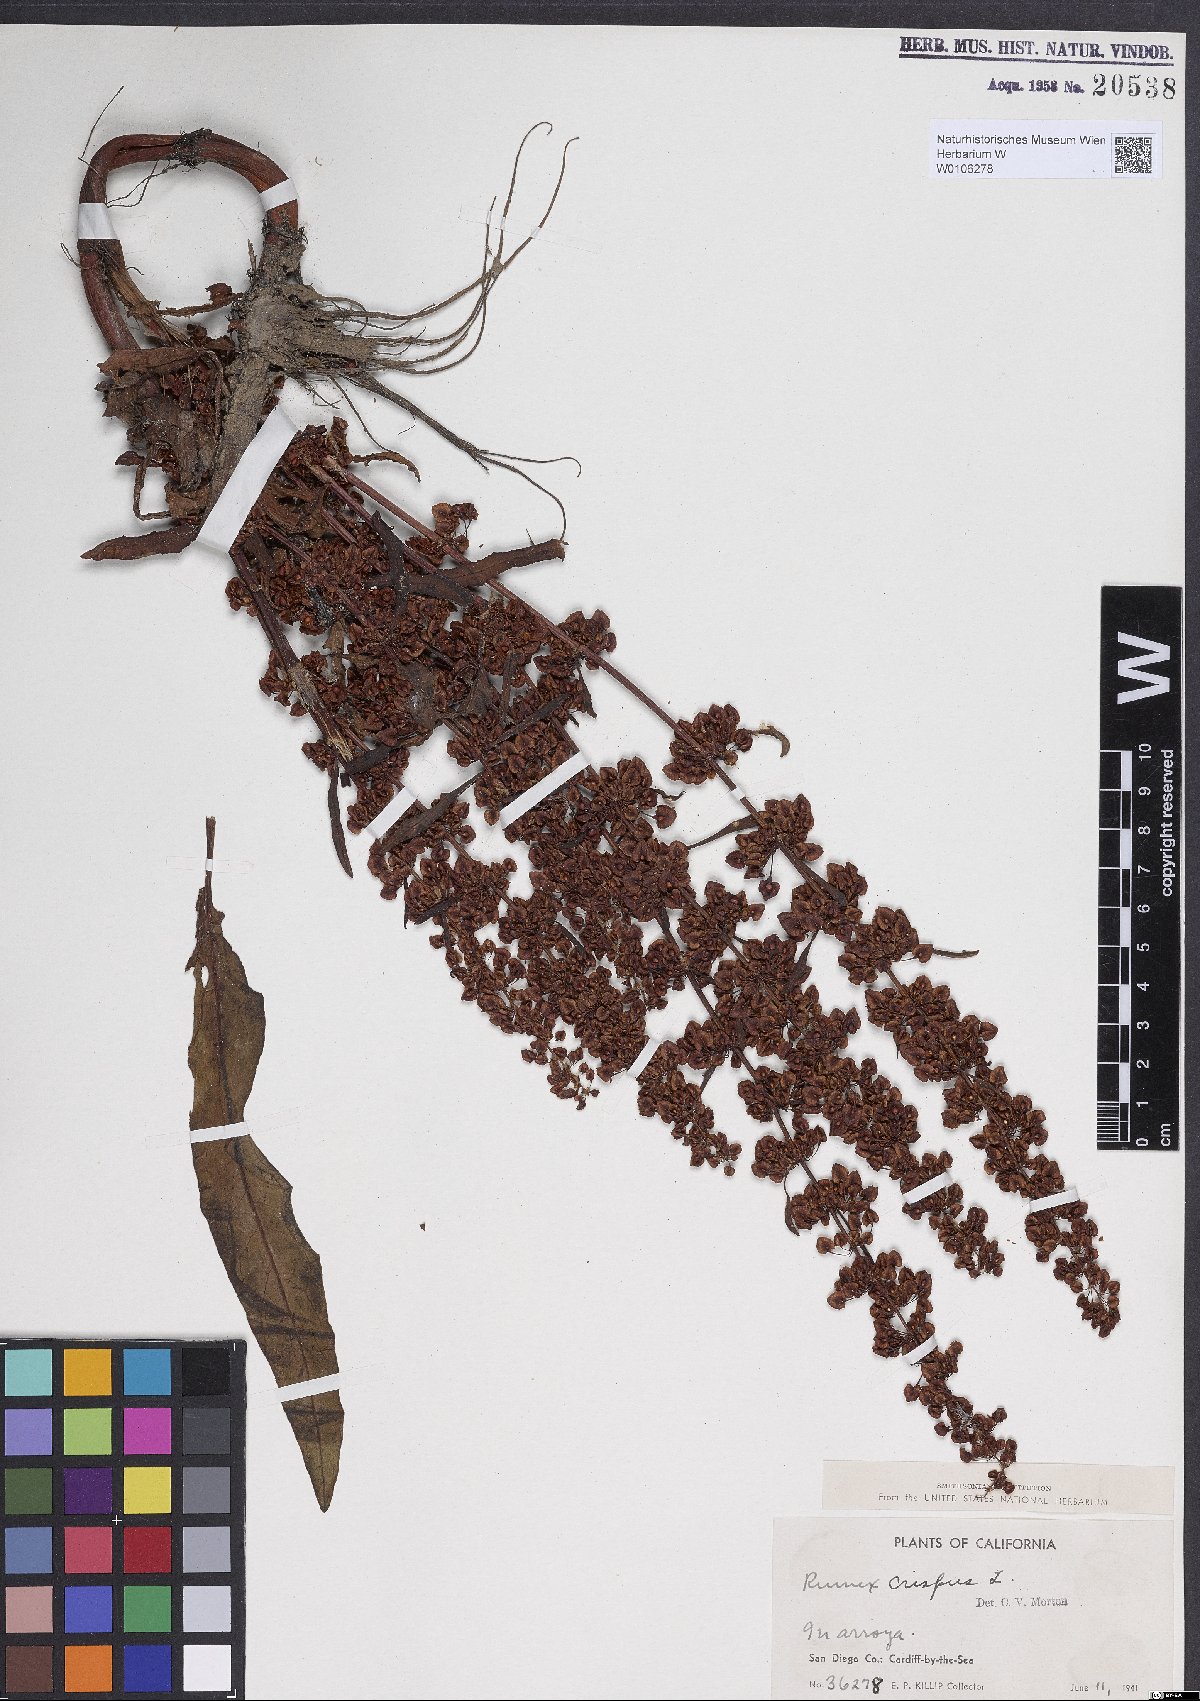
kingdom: Plantae
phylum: Tracheophyta
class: Magnoliopsida
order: Caryophyllales
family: Polygonaceae
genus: Rumex
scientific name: Rumex crispus
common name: Curled dock
